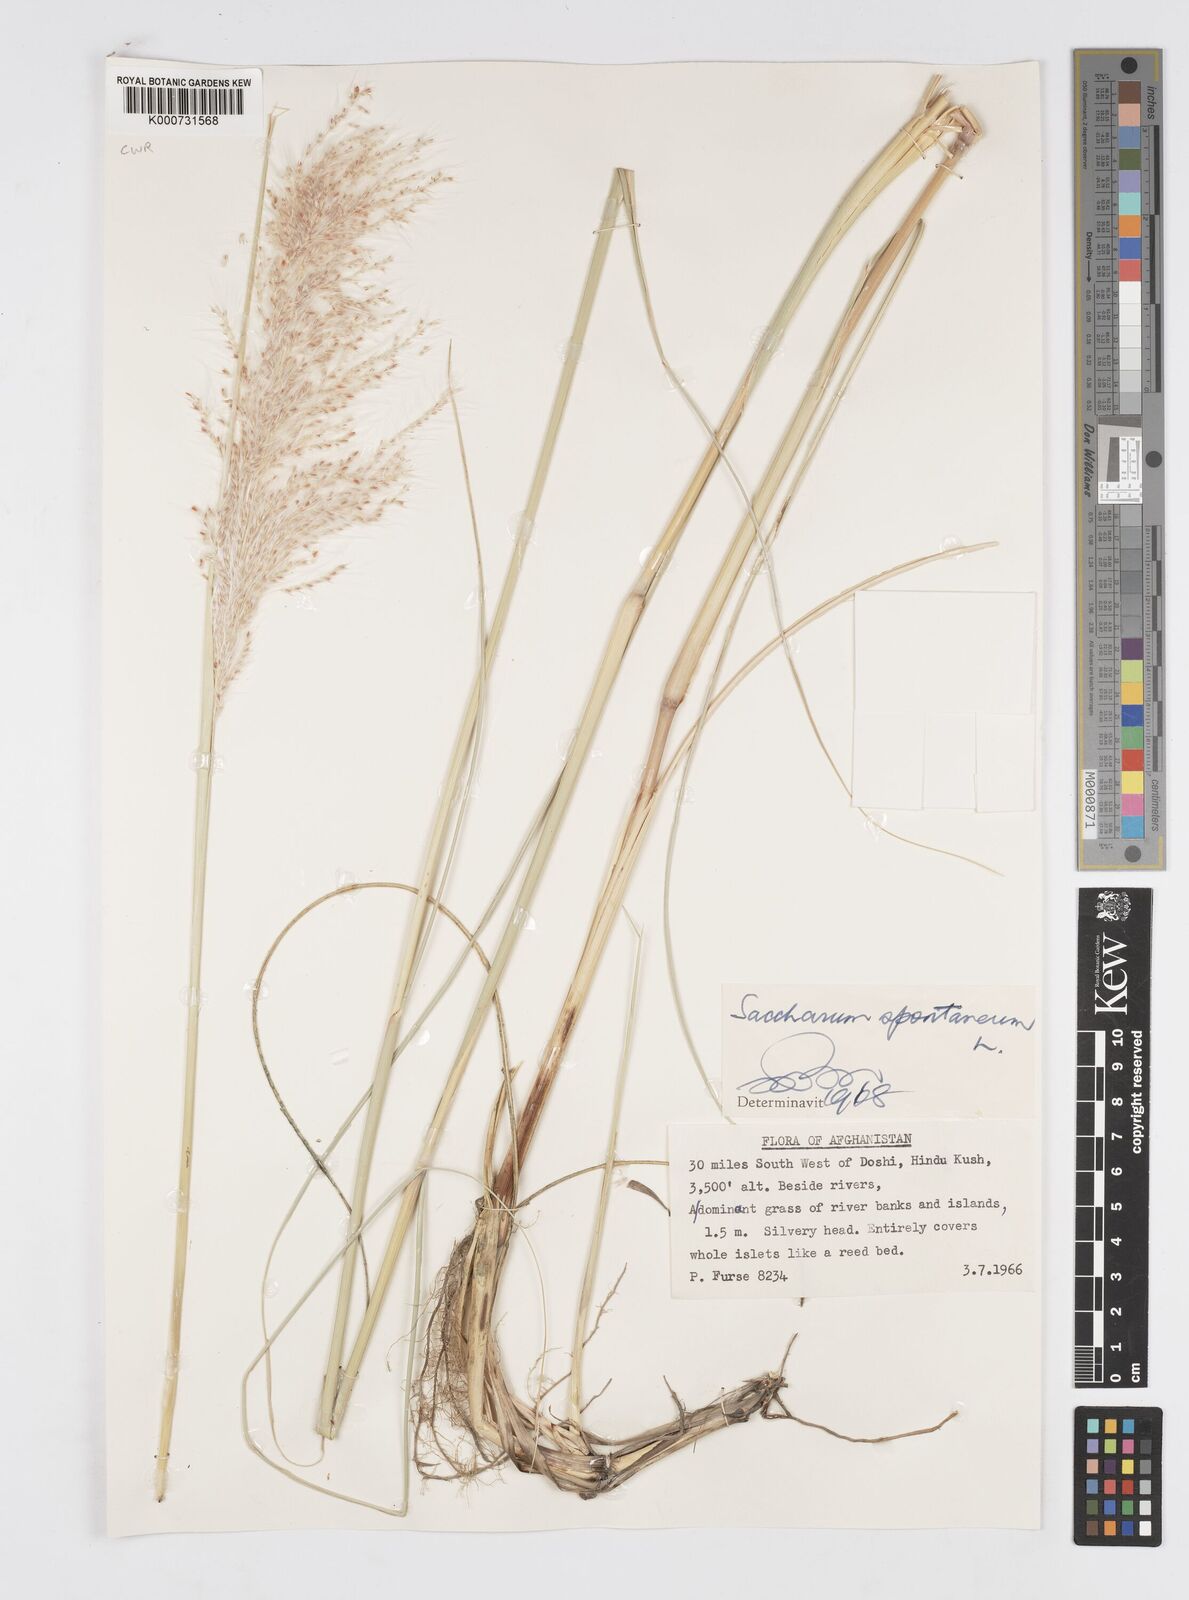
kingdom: Plantae
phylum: Tracheophyta
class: Liliopsida
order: Poales
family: Poaceae
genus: Saccharum
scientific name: Saccharum spontaneum
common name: Wild sugarcane
